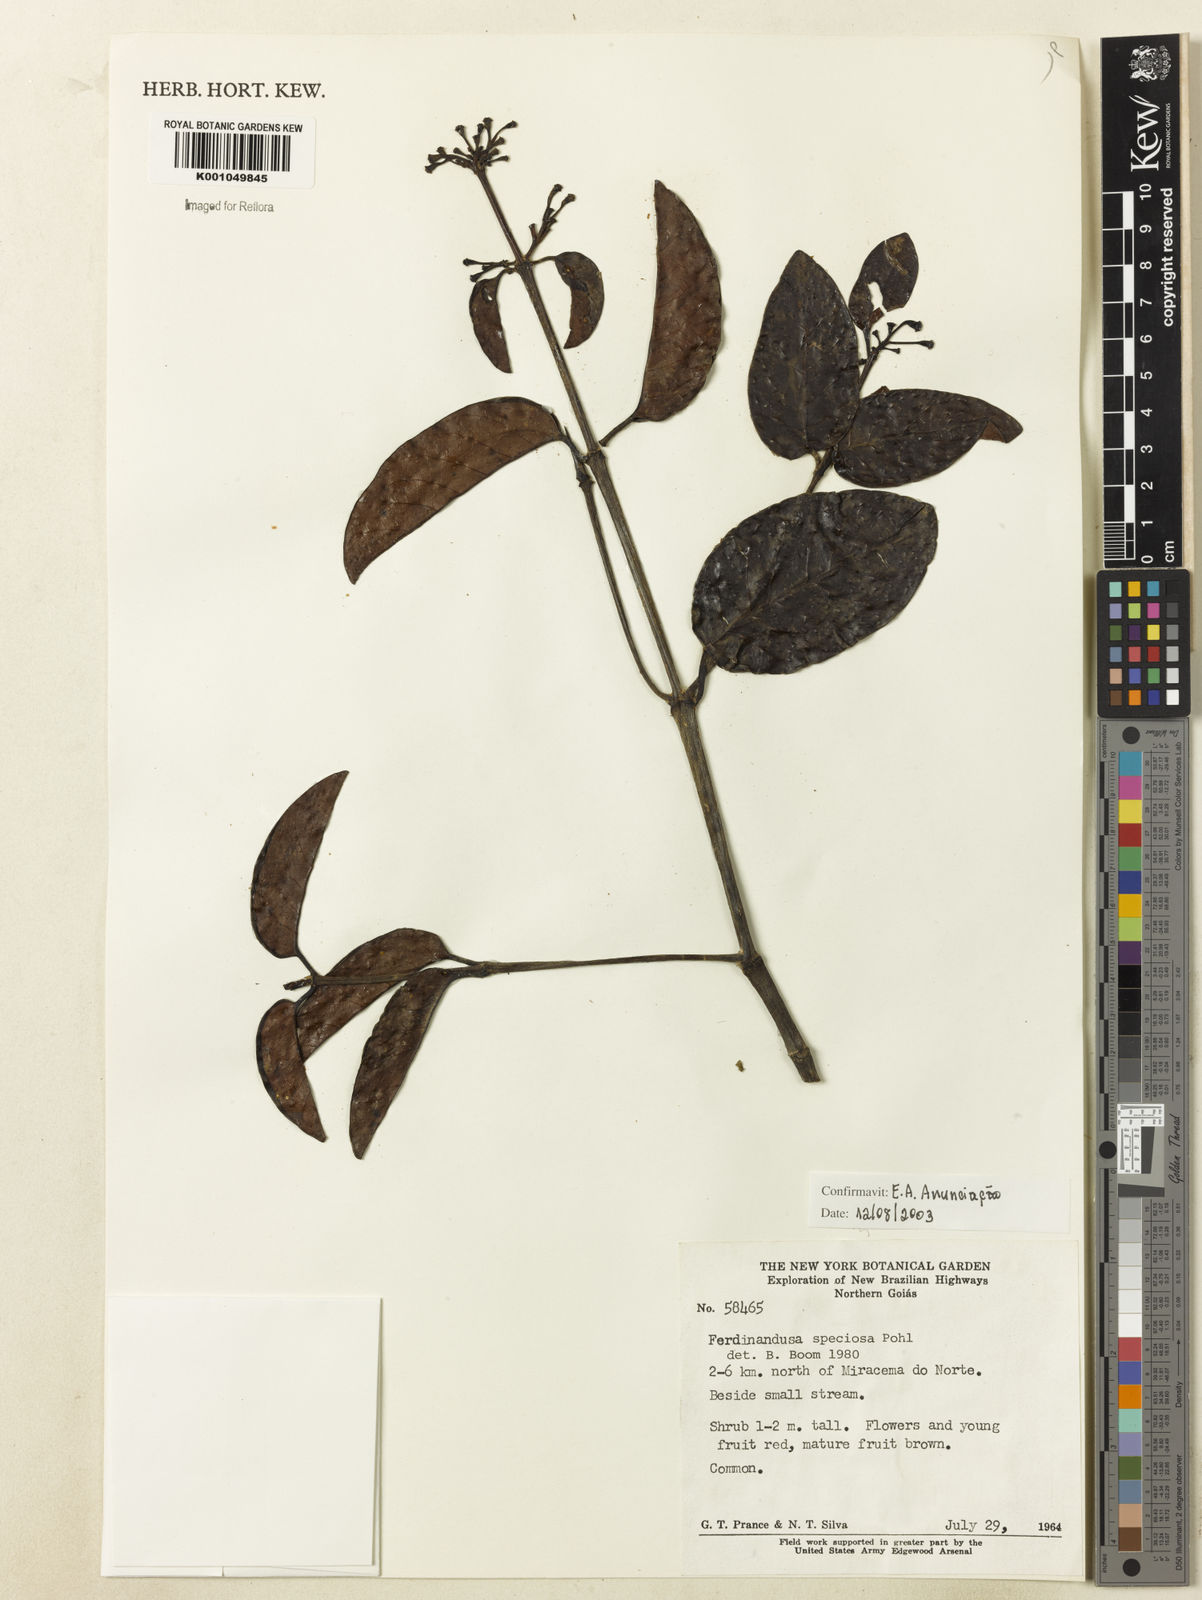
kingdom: Plantae
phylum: Tracheophyta
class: Magnoliopsida
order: Gentianales
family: Rubiaceae
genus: Ferdinandusa
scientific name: Ferdinandusa speciosa
